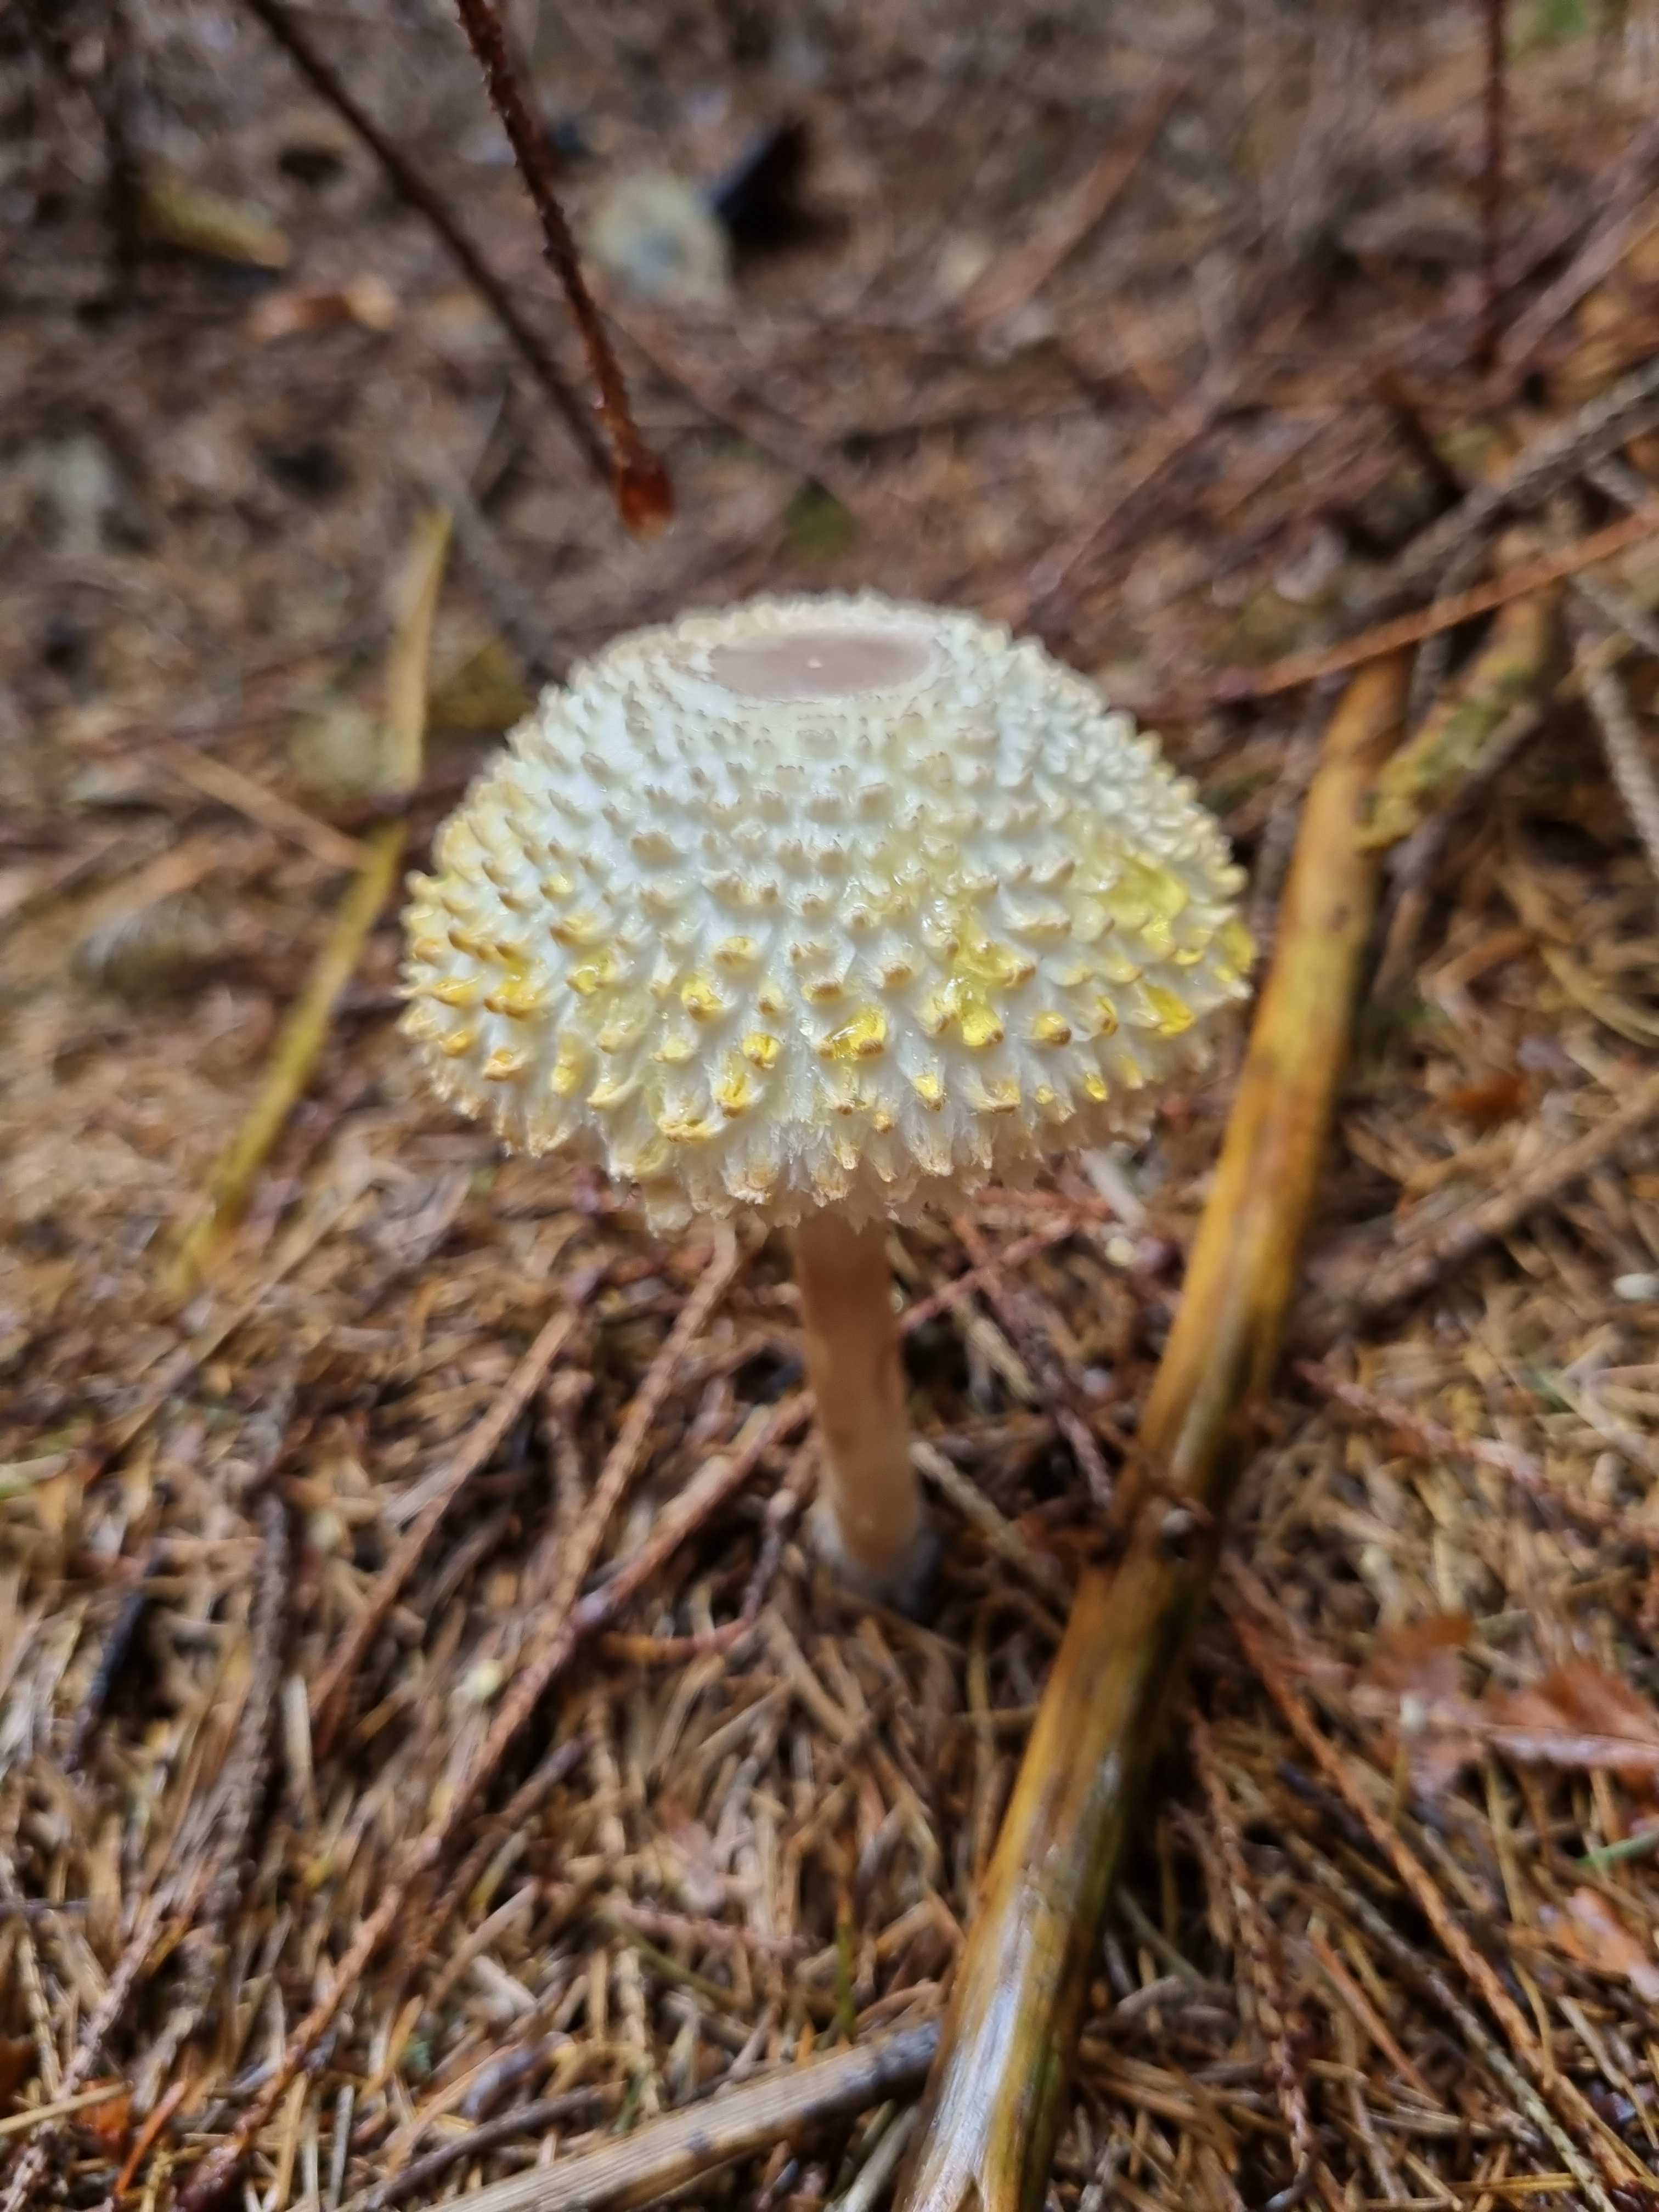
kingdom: Fungi
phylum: Basidiomycota
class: Agaricomycetes
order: Agaricales
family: Agaricaceae
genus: Leucoagaricus
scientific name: Leucoagaricus nympharum
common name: gran-silkehat
